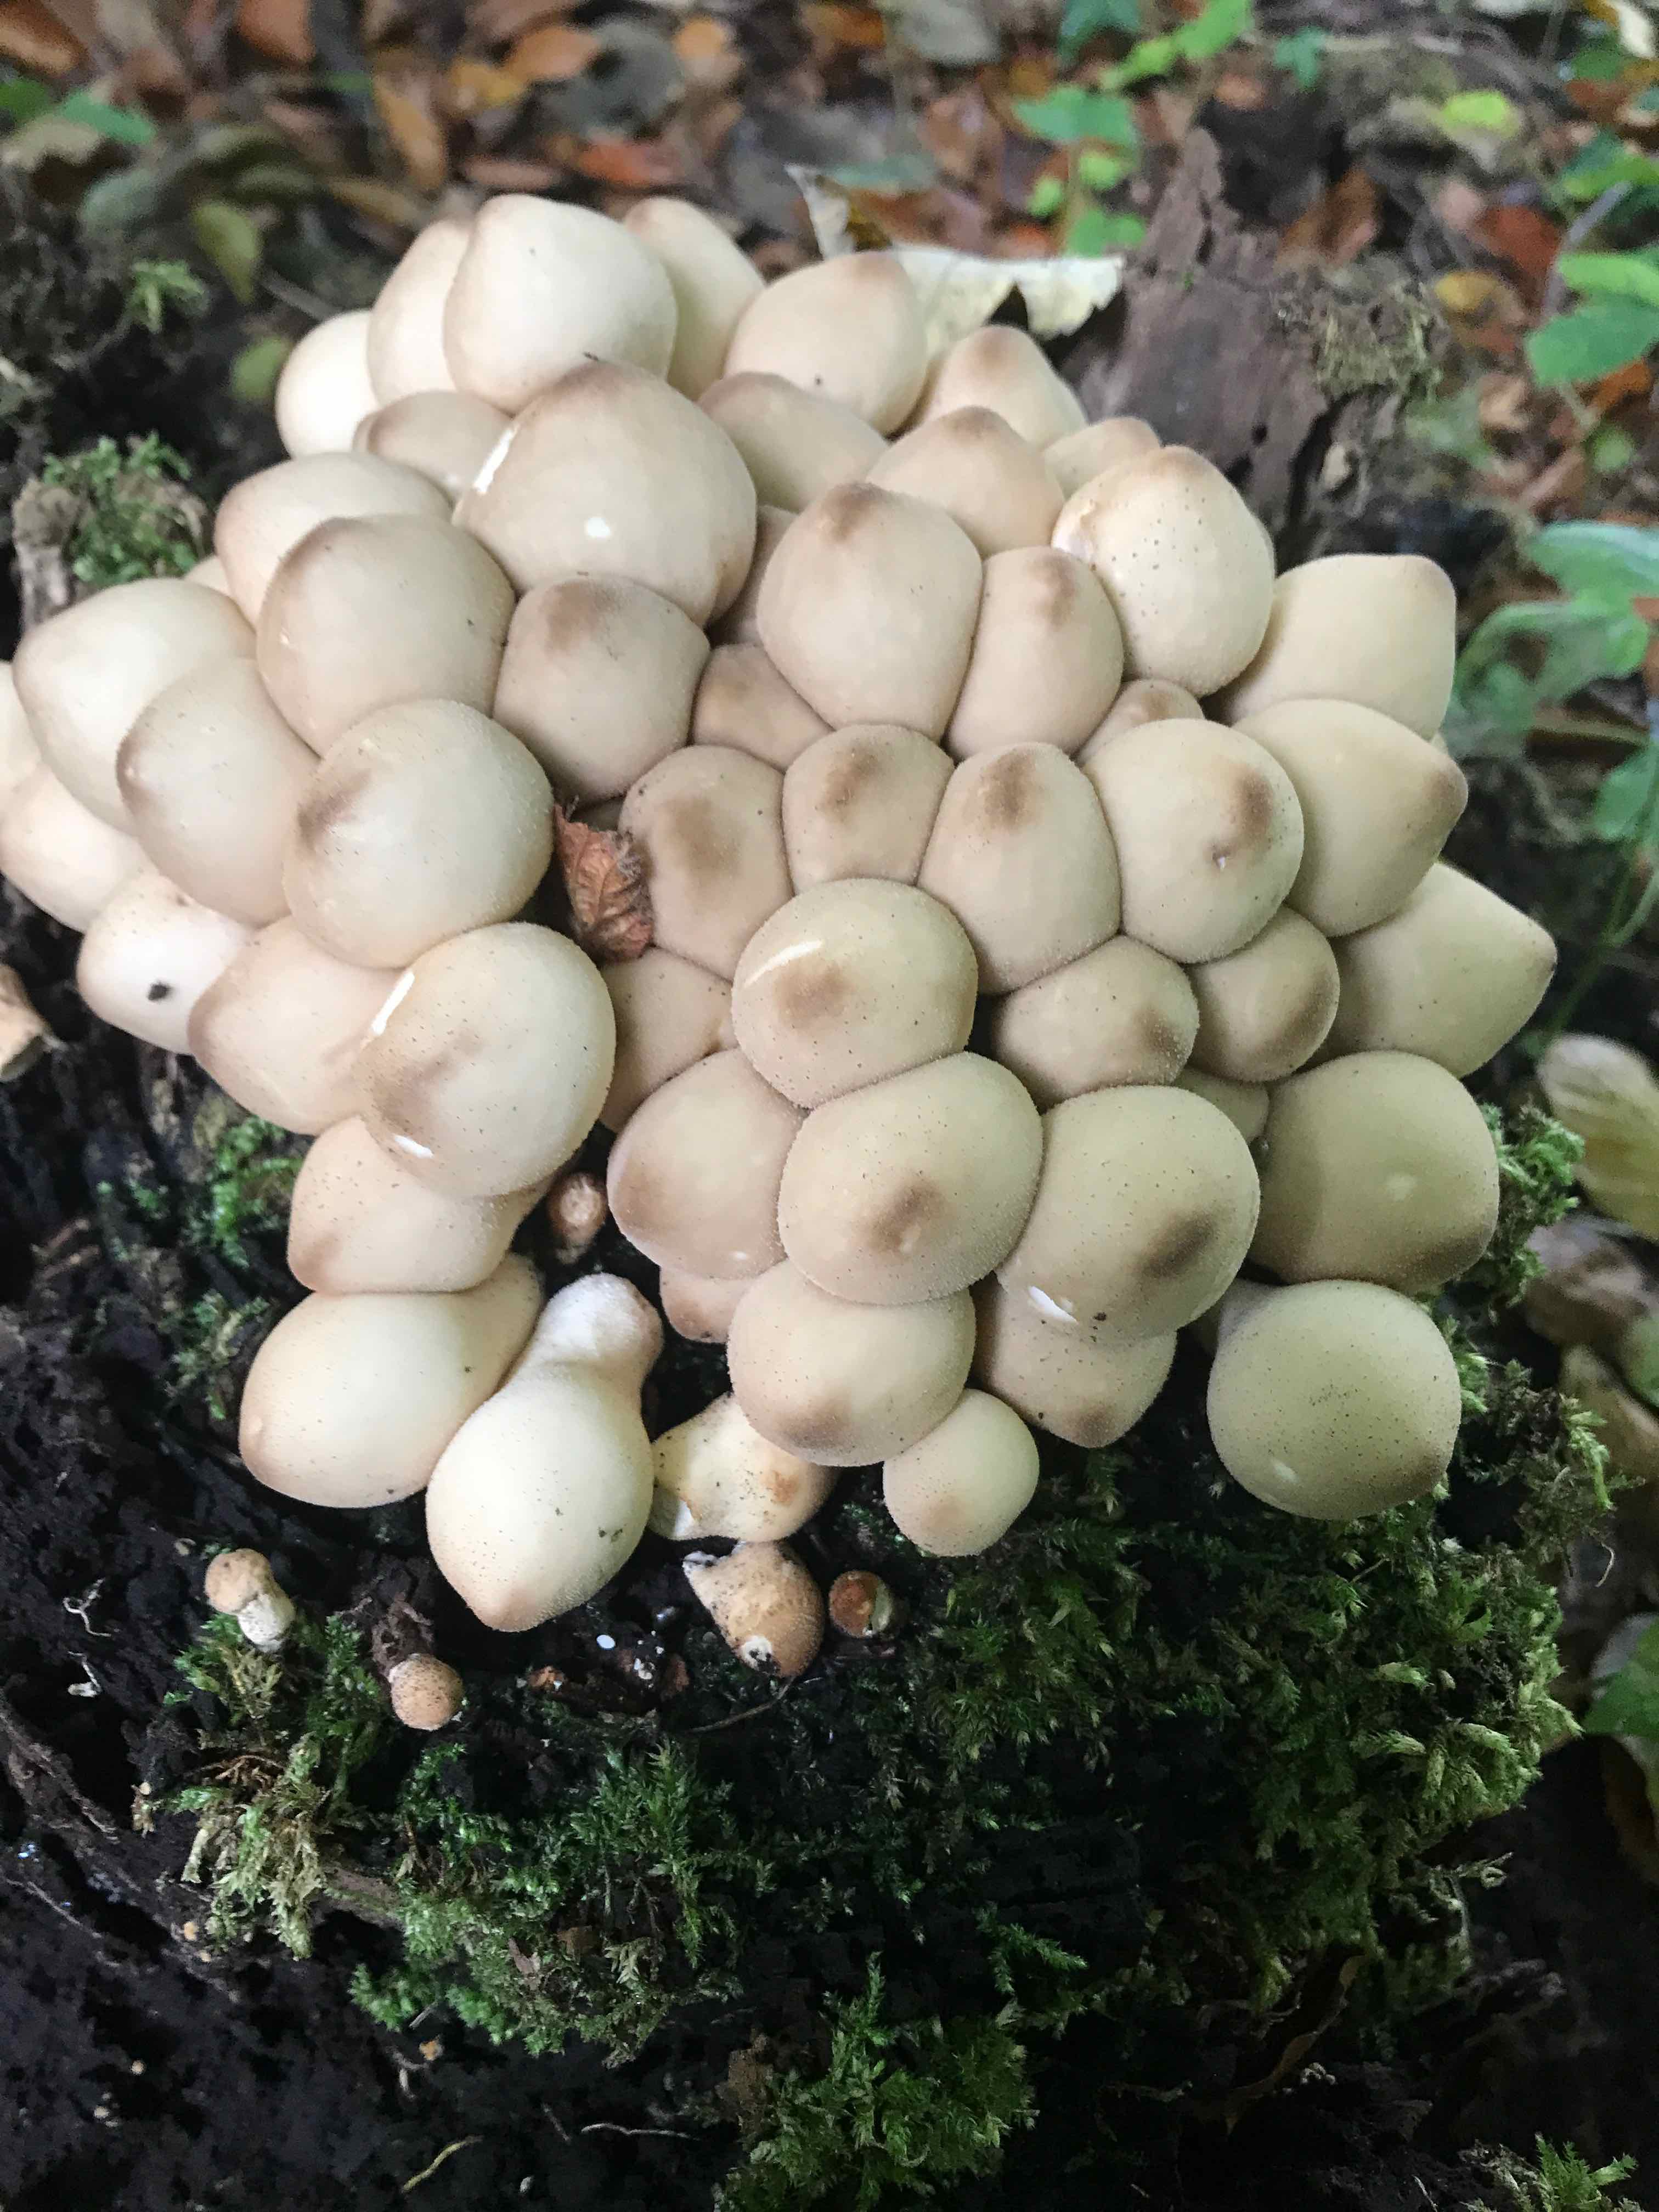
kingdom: Fungi
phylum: Basidiomycota
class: Agaricomycetes
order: Agaricales
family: Lycoperdaceae
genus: Apioperdon
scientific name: Apioperdon pyriforme
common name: pære-støvbold
